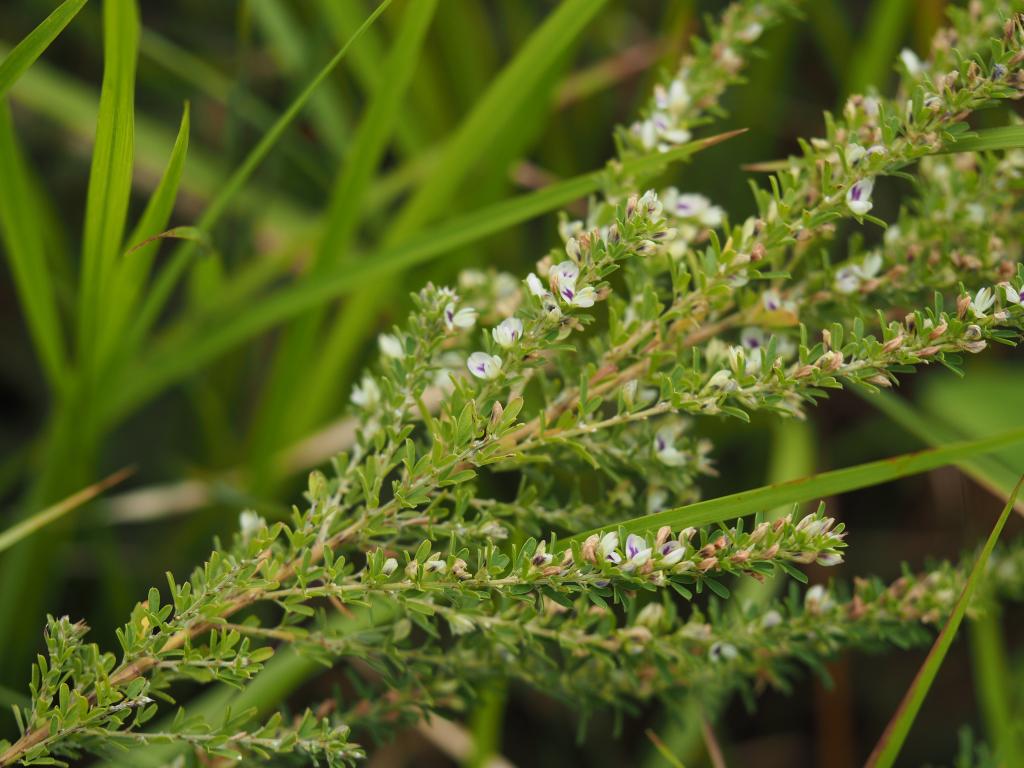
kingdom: Plantae
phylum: Tracheophyta
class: Magnoliopsida
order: Fabales
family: Fabaceae
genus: Lespedeza
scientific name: Lespedeza cuneata
